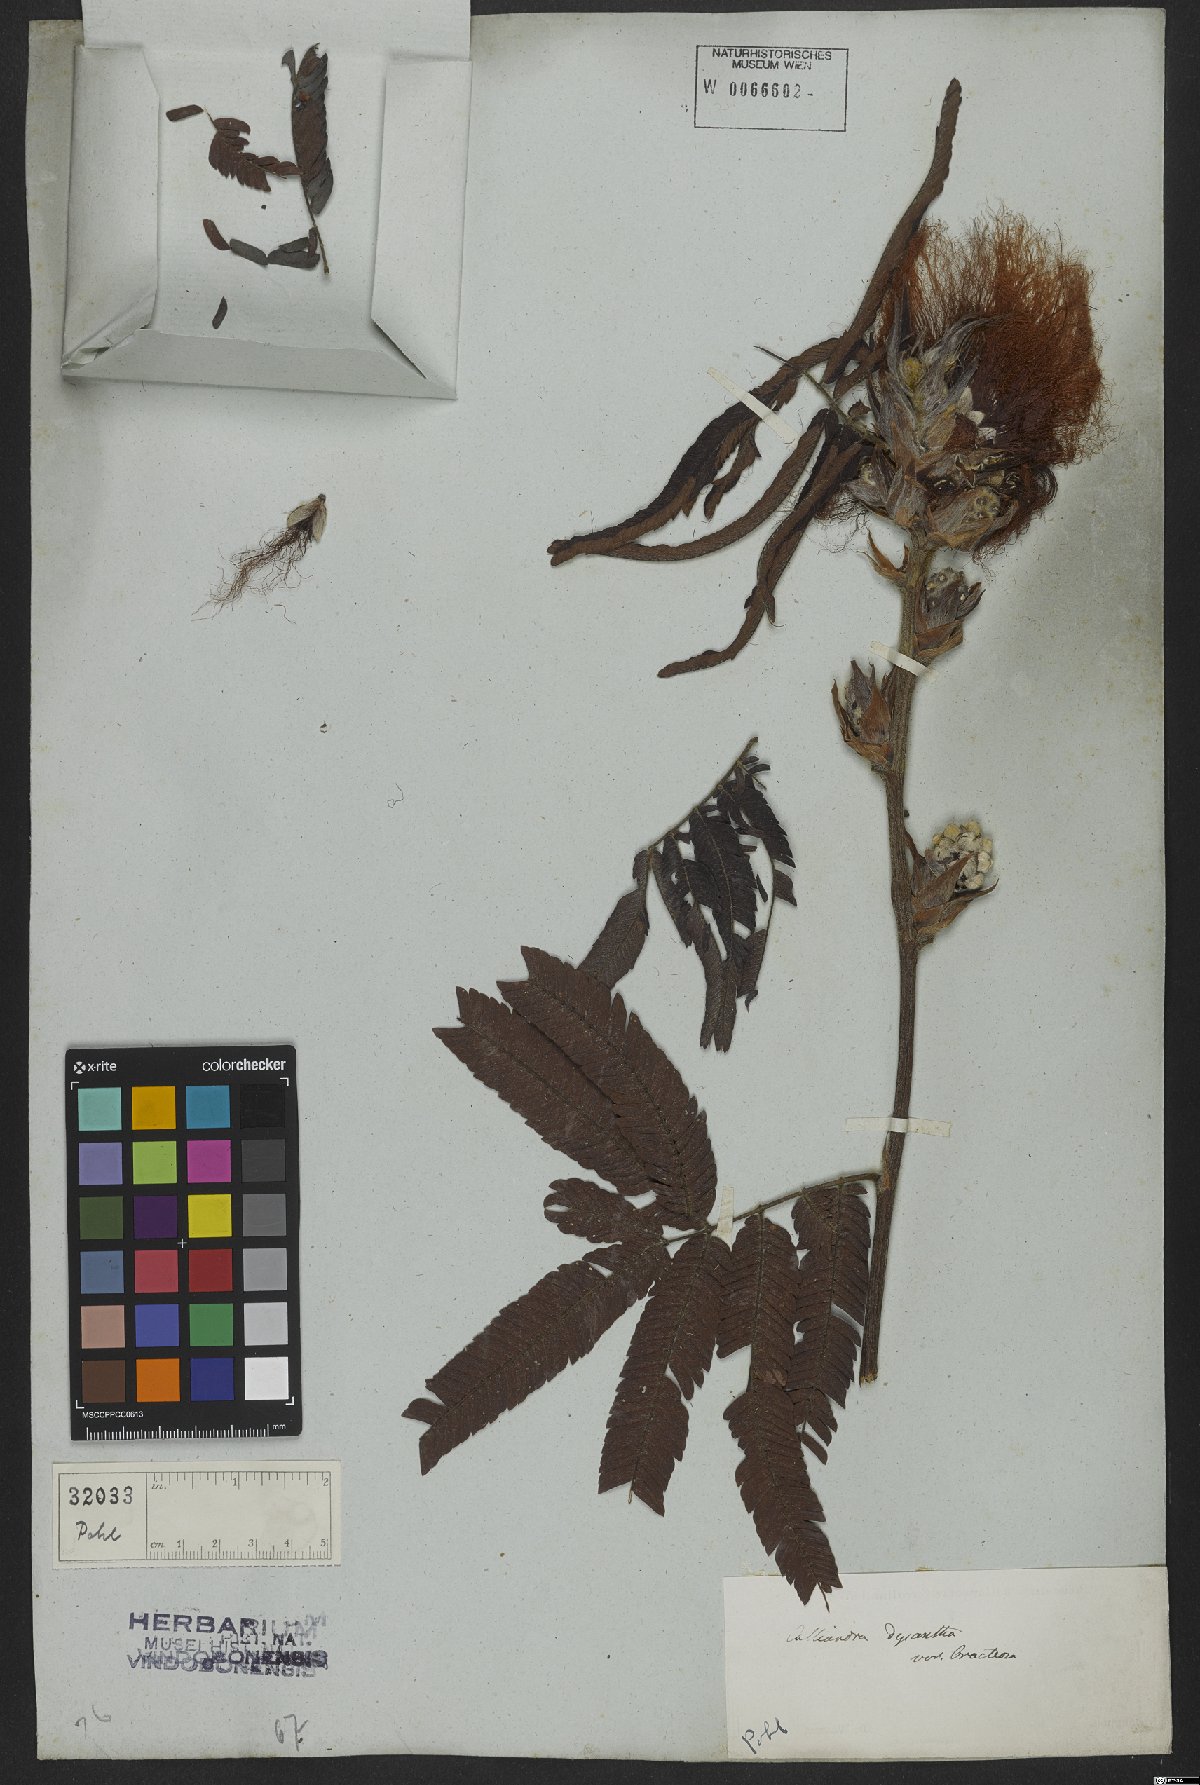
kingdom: Plantae
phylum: Tracheophyta
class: Magnoliopsida
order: Fabales
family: Fabaceae
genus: Calliandra
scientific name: Calliandra dysantha
